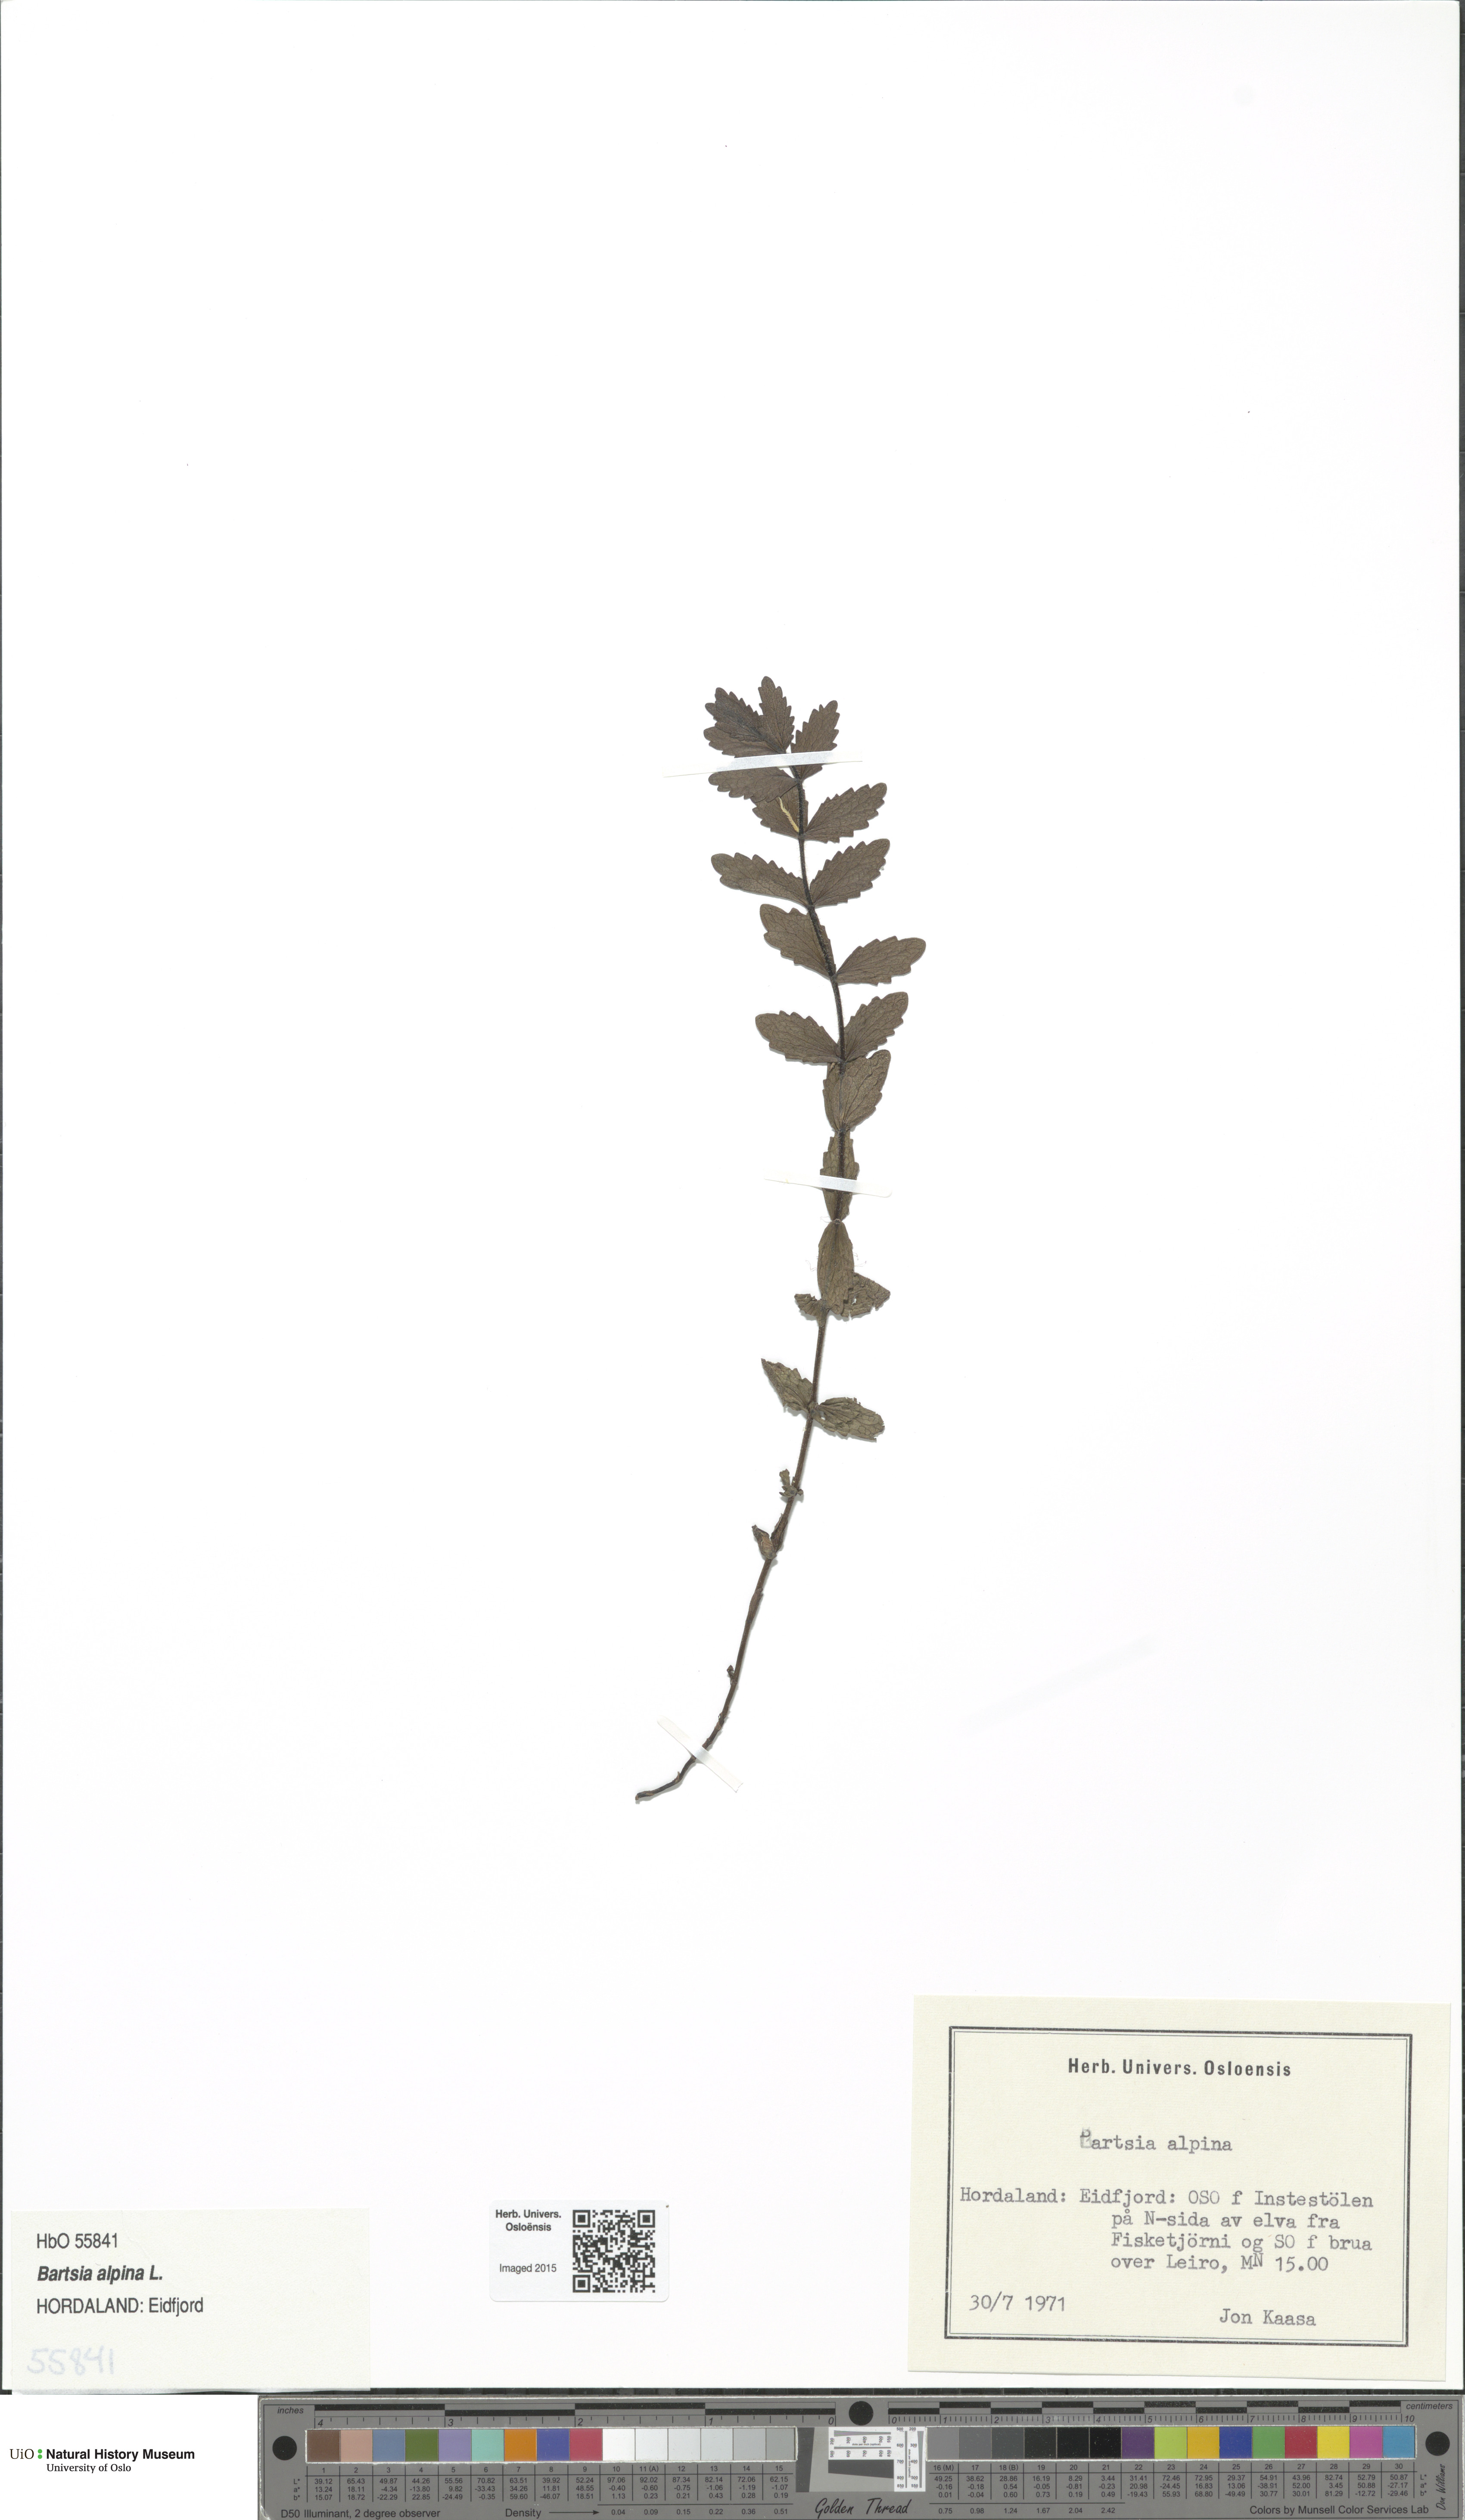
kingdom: Plantae
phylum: Tracheophyta
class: Magnoliopsida
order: Lamiales
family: Orobanchaceae
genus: Bartsia
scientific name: Bartsia alpina
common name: Alpine bartsia
